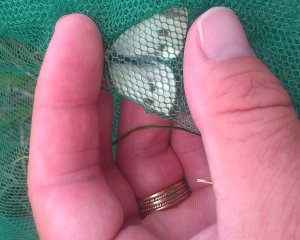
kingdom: Animalia
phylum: Arthropoda
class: Insecta
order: Lepidoptera
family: Pieridae
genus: Pieris
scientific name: Pieris rapae
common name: Cabbage White
